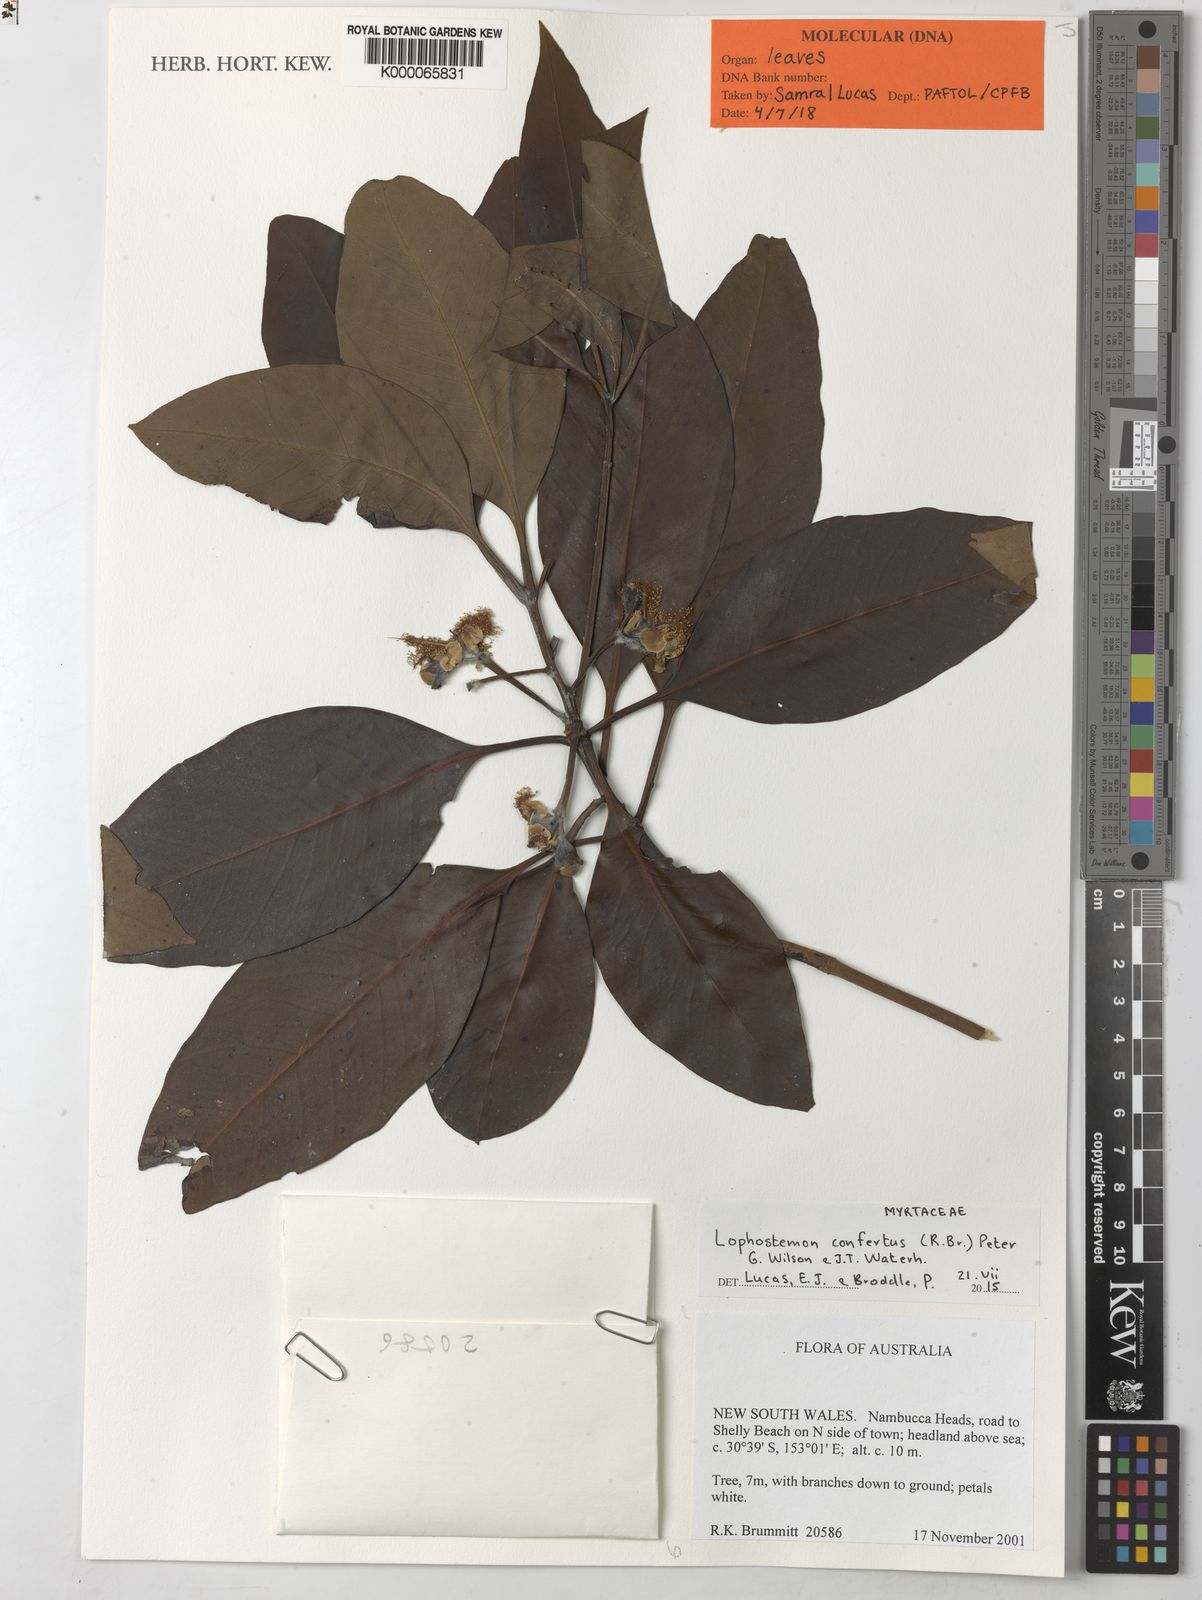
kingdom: Plantae
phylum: Tracheophyta
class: Magnoliopsida
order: Myrtales
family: Myrtaceae
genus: Lophostemon
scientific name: Lophostemon confertus
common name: Brisbane box
